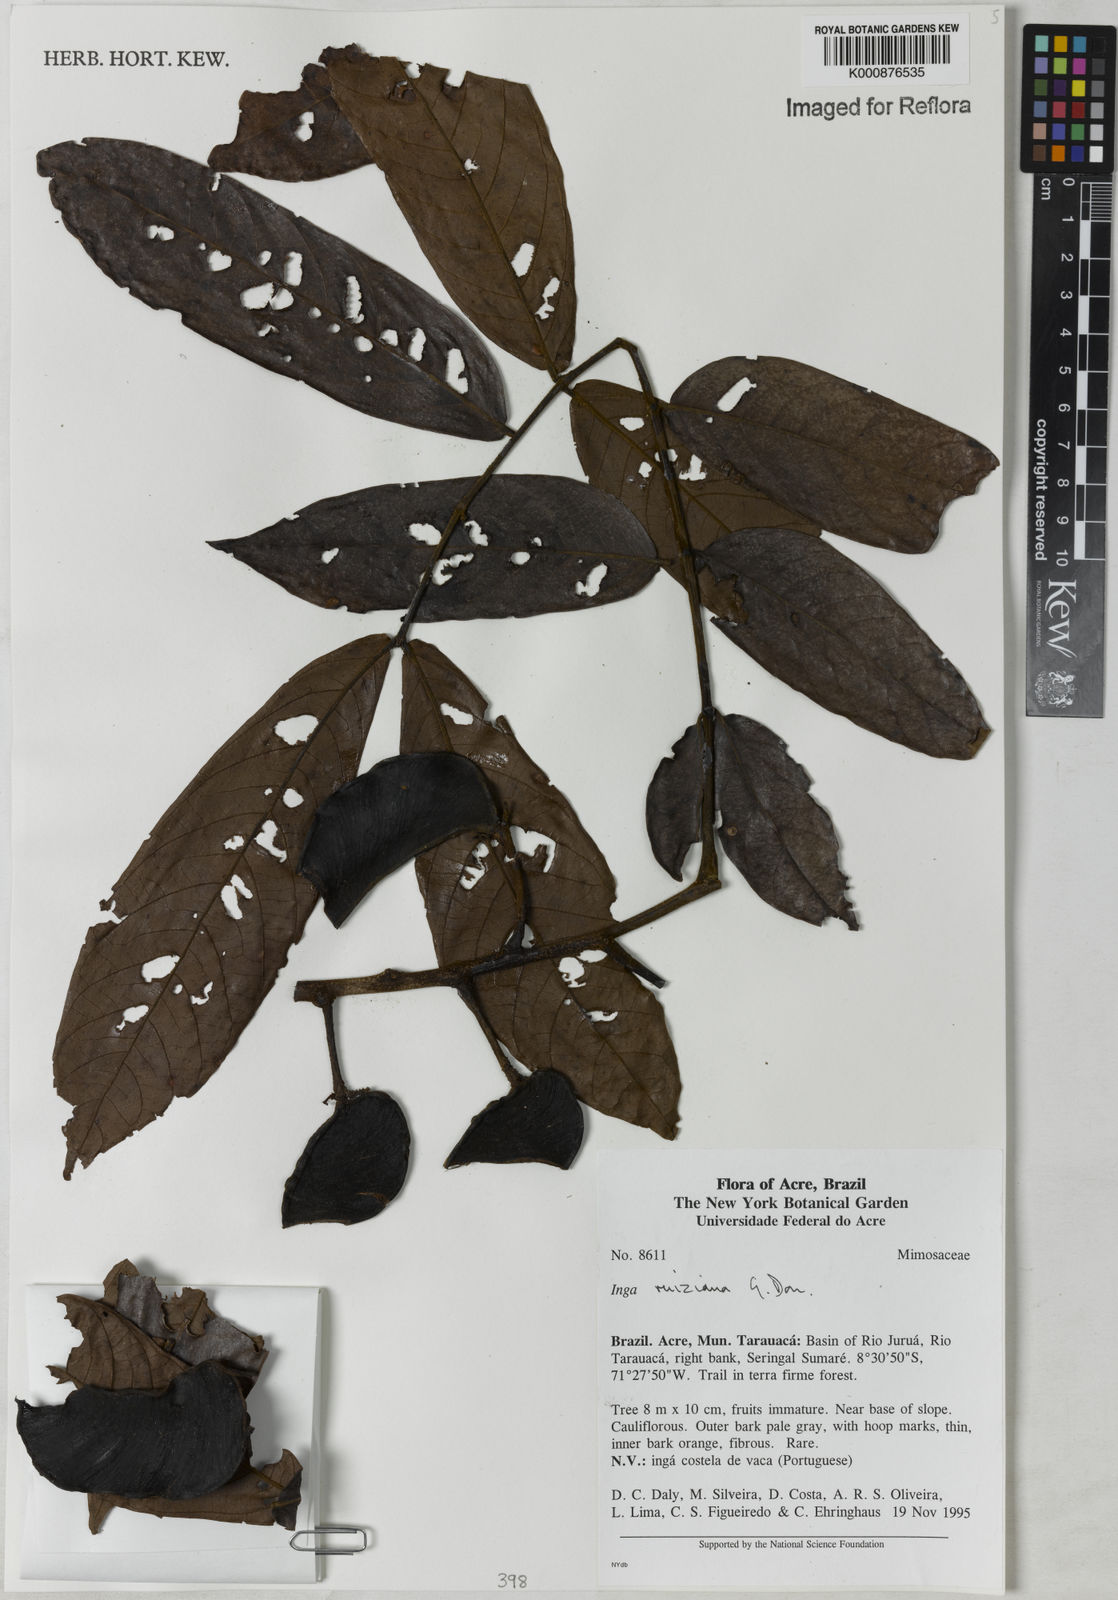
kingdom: Plantae
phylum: Tracheophyta
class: Magnoliopsida
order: Fabales
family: Fabaceae
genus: Inga
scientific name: Inga ruiziana
